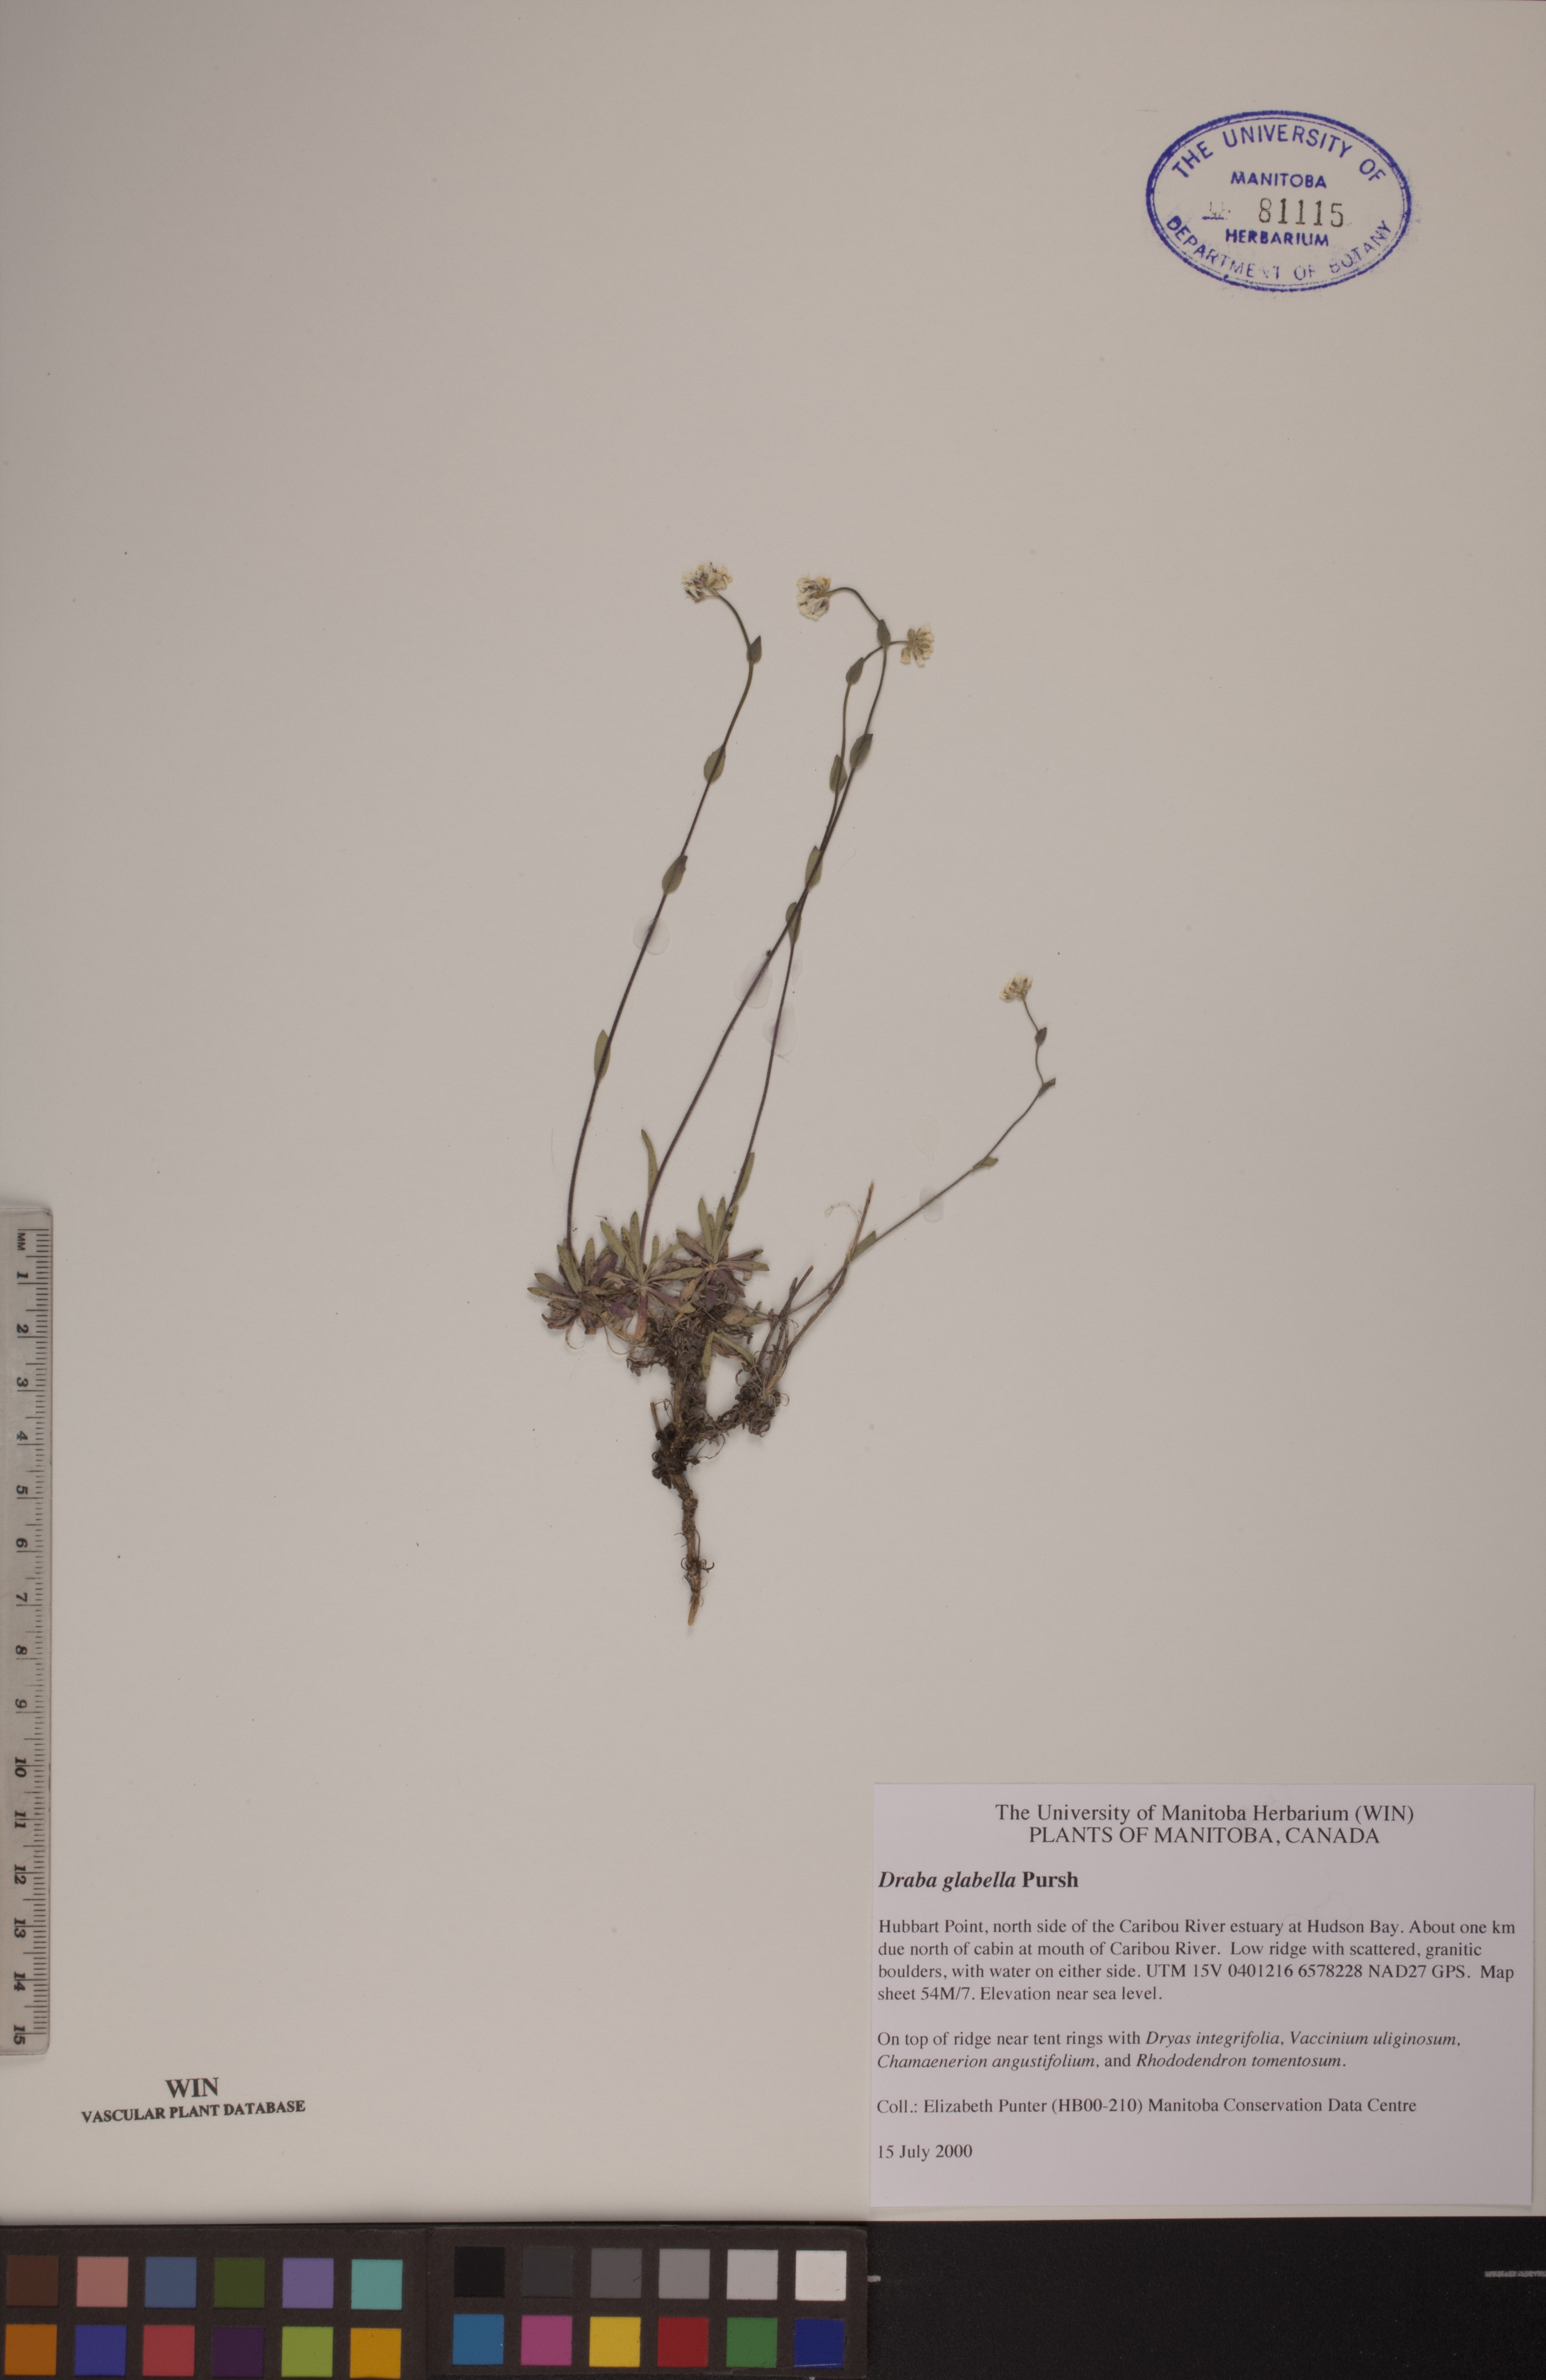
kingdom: Plantae
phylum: Tracheophyta
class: Magnoliopsida
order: Brassicales
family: Brassicaceae
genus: Draba
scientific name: Draba glabella
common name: Glaucous draba
